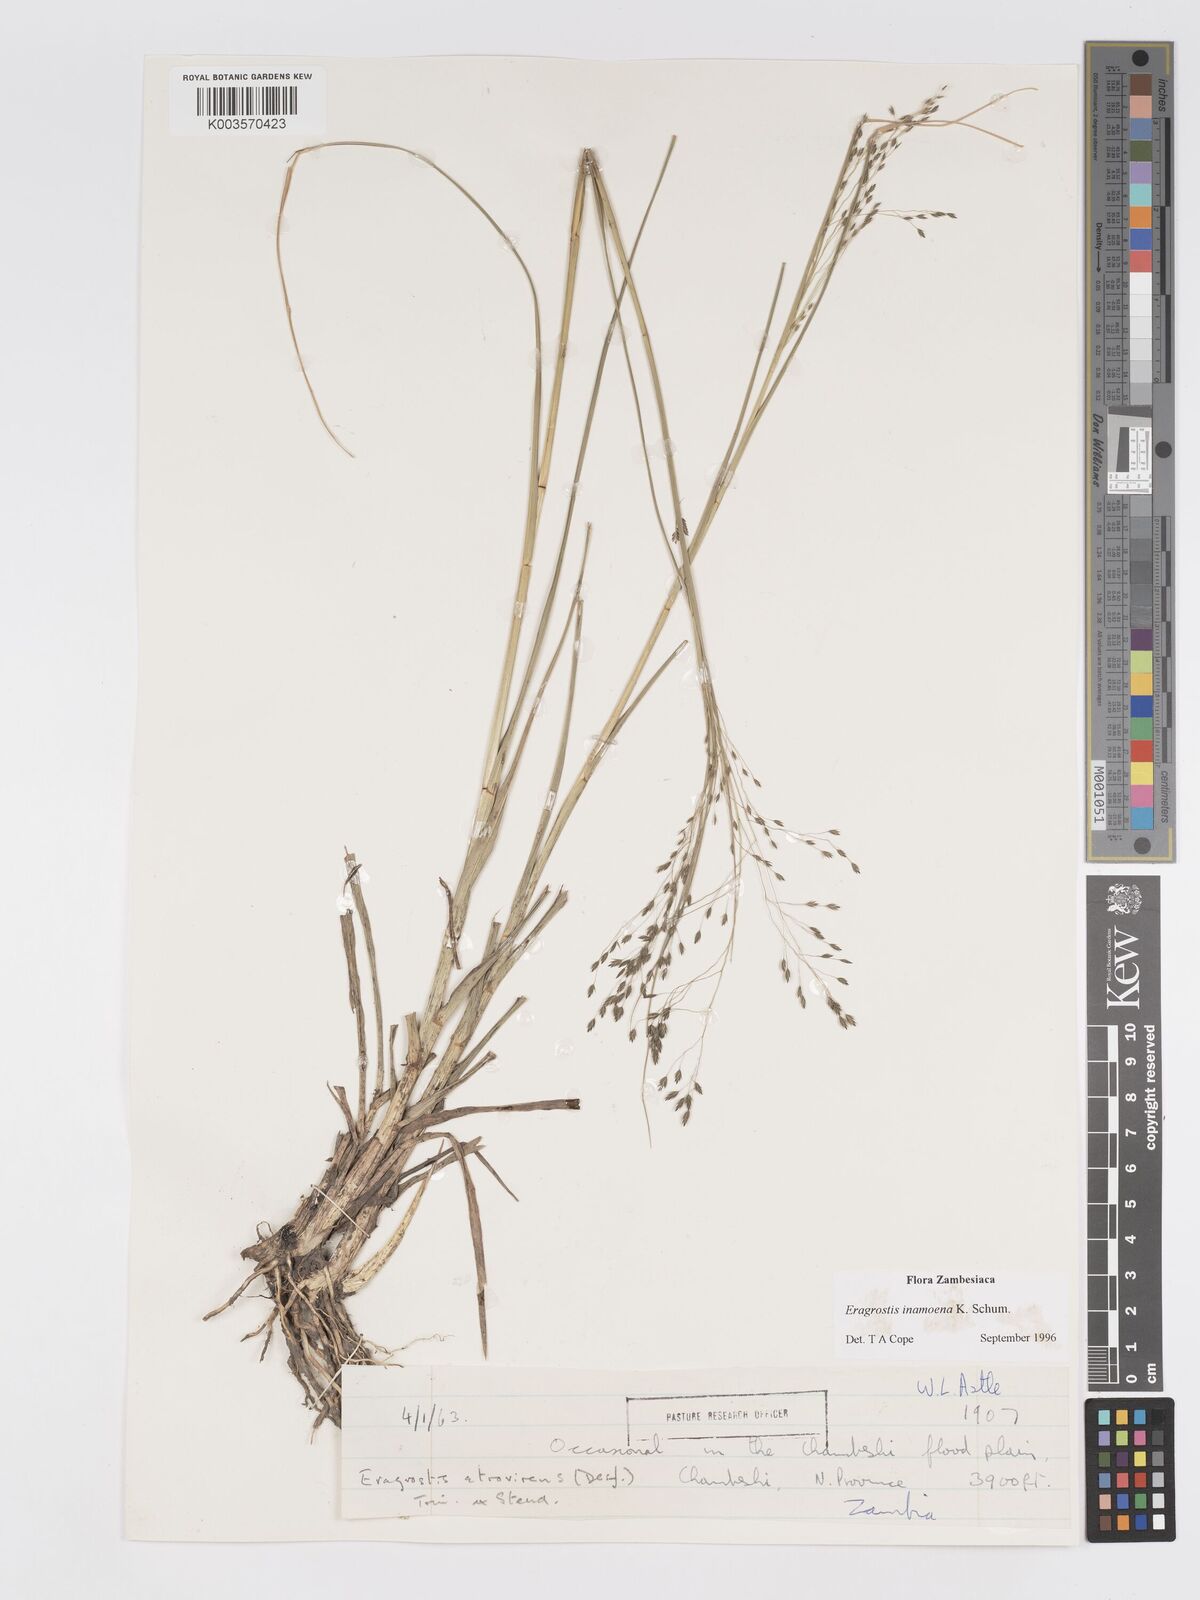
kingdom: Plantae
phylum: Tracheophyta
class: Liliopsida
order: Poales
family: Poaceae
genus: Eragrostis
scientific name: Eragrostis inamoena
